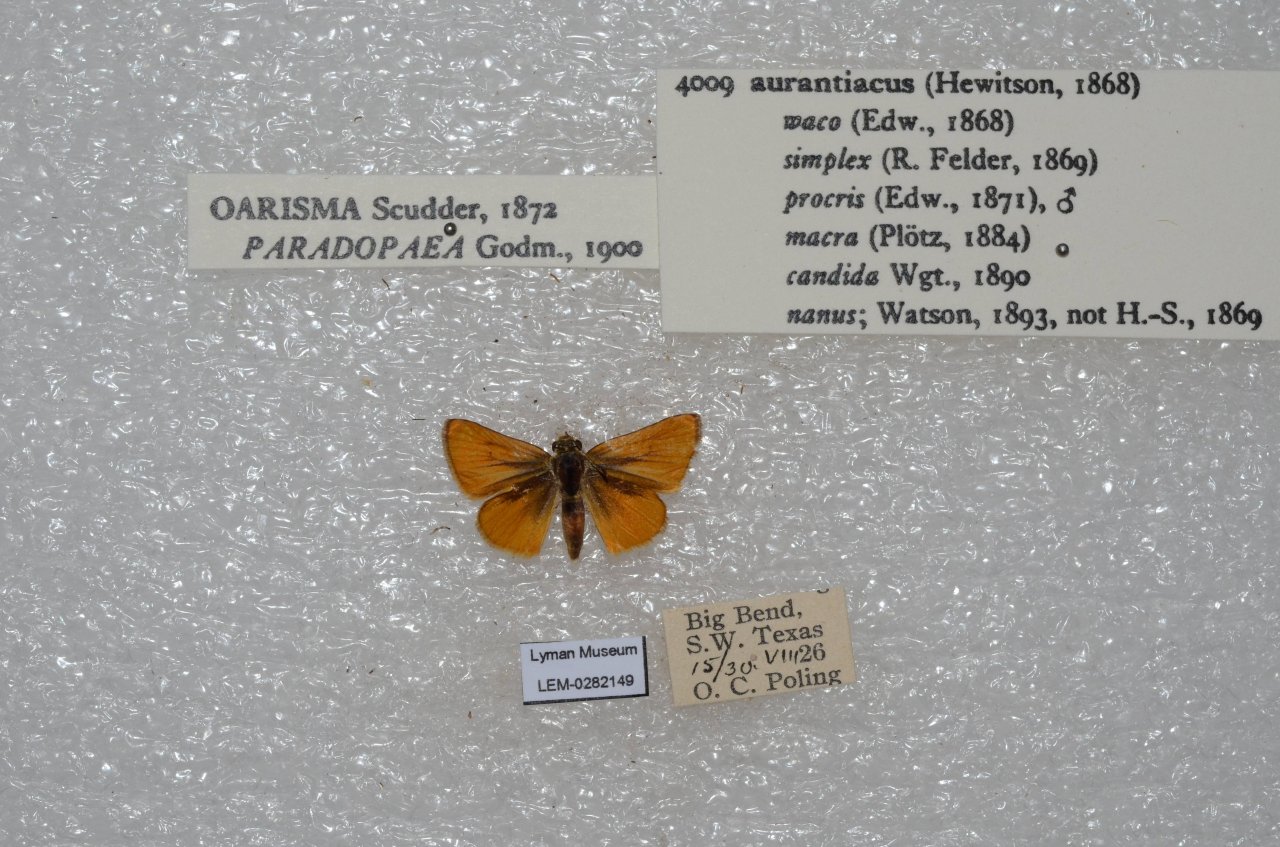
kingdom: Animalia
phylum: Arthropoda
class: Insecta
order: Lepidoptera
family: Hesperiidae
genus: Copaeodes
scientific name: Copaeodes aurantiaca
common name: Orange Skipperling
